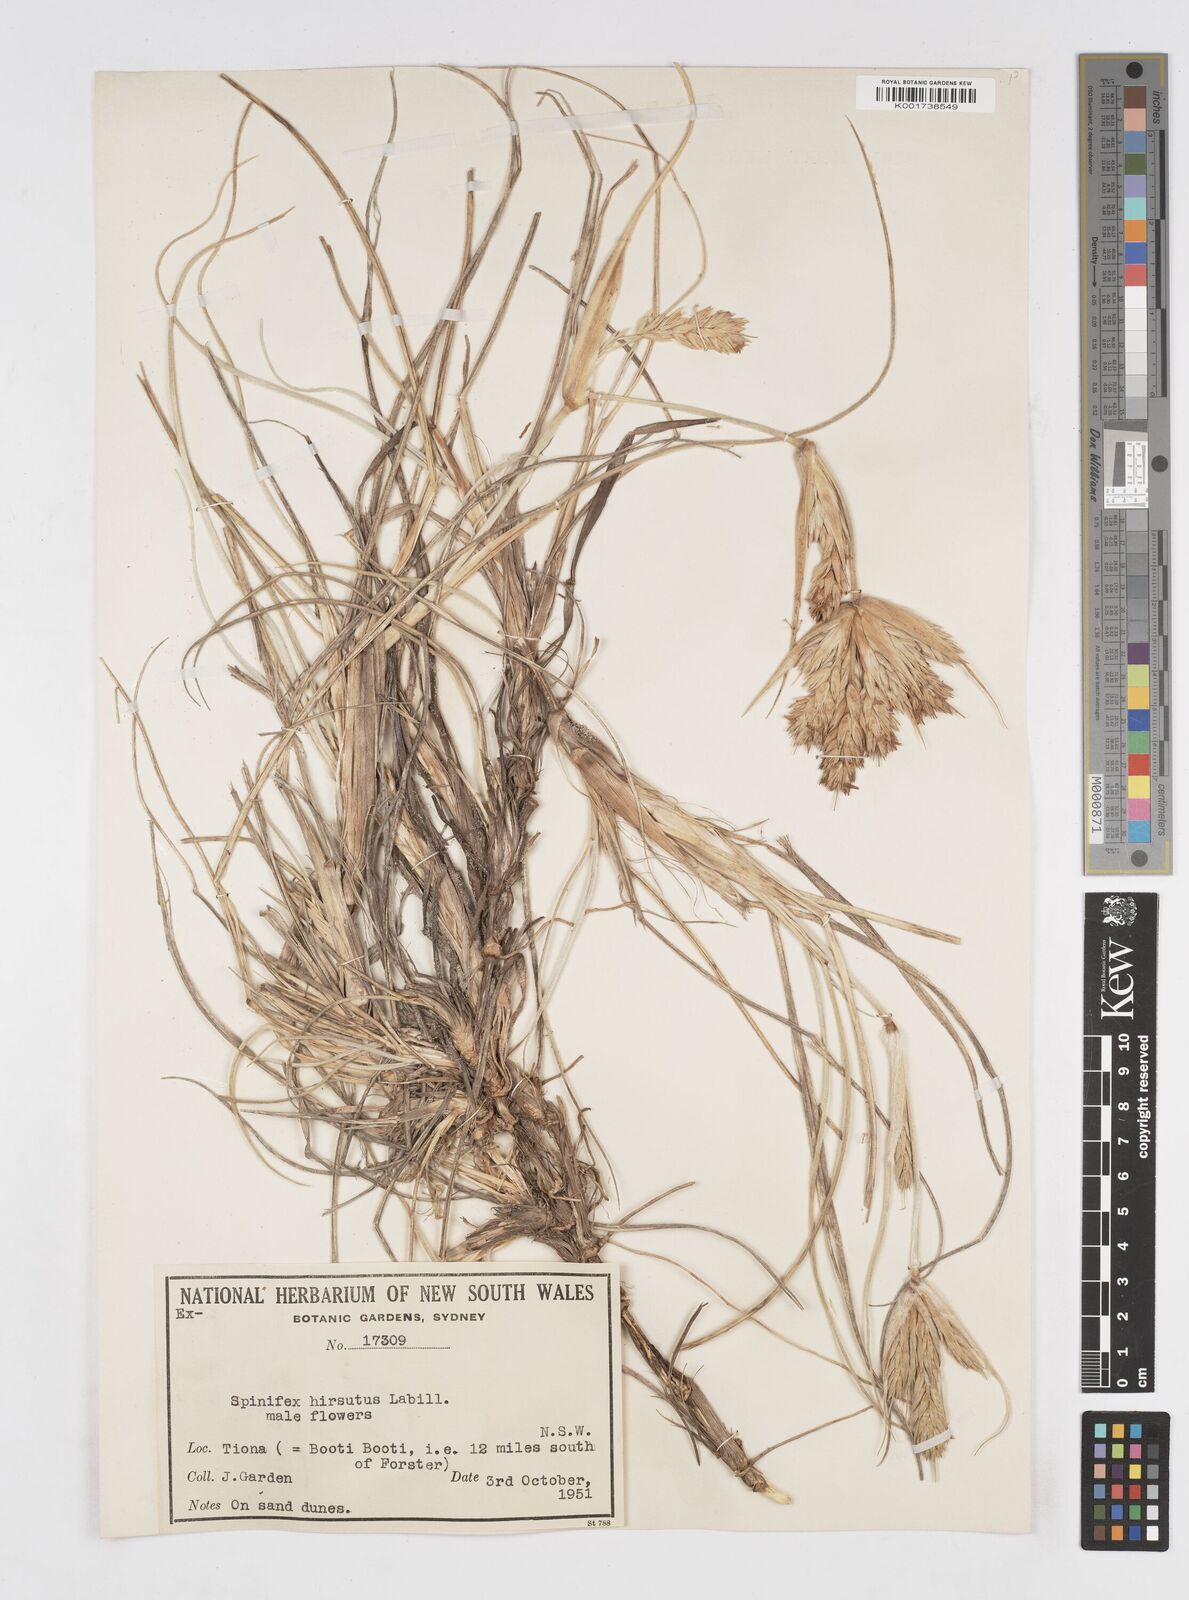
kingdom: Plantae
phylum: Tracheophyta
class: Liliopsida
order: Poales
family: Poaceae
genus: Spinifex
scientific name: Spinifex hirsutus
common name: Hairy spinifex
